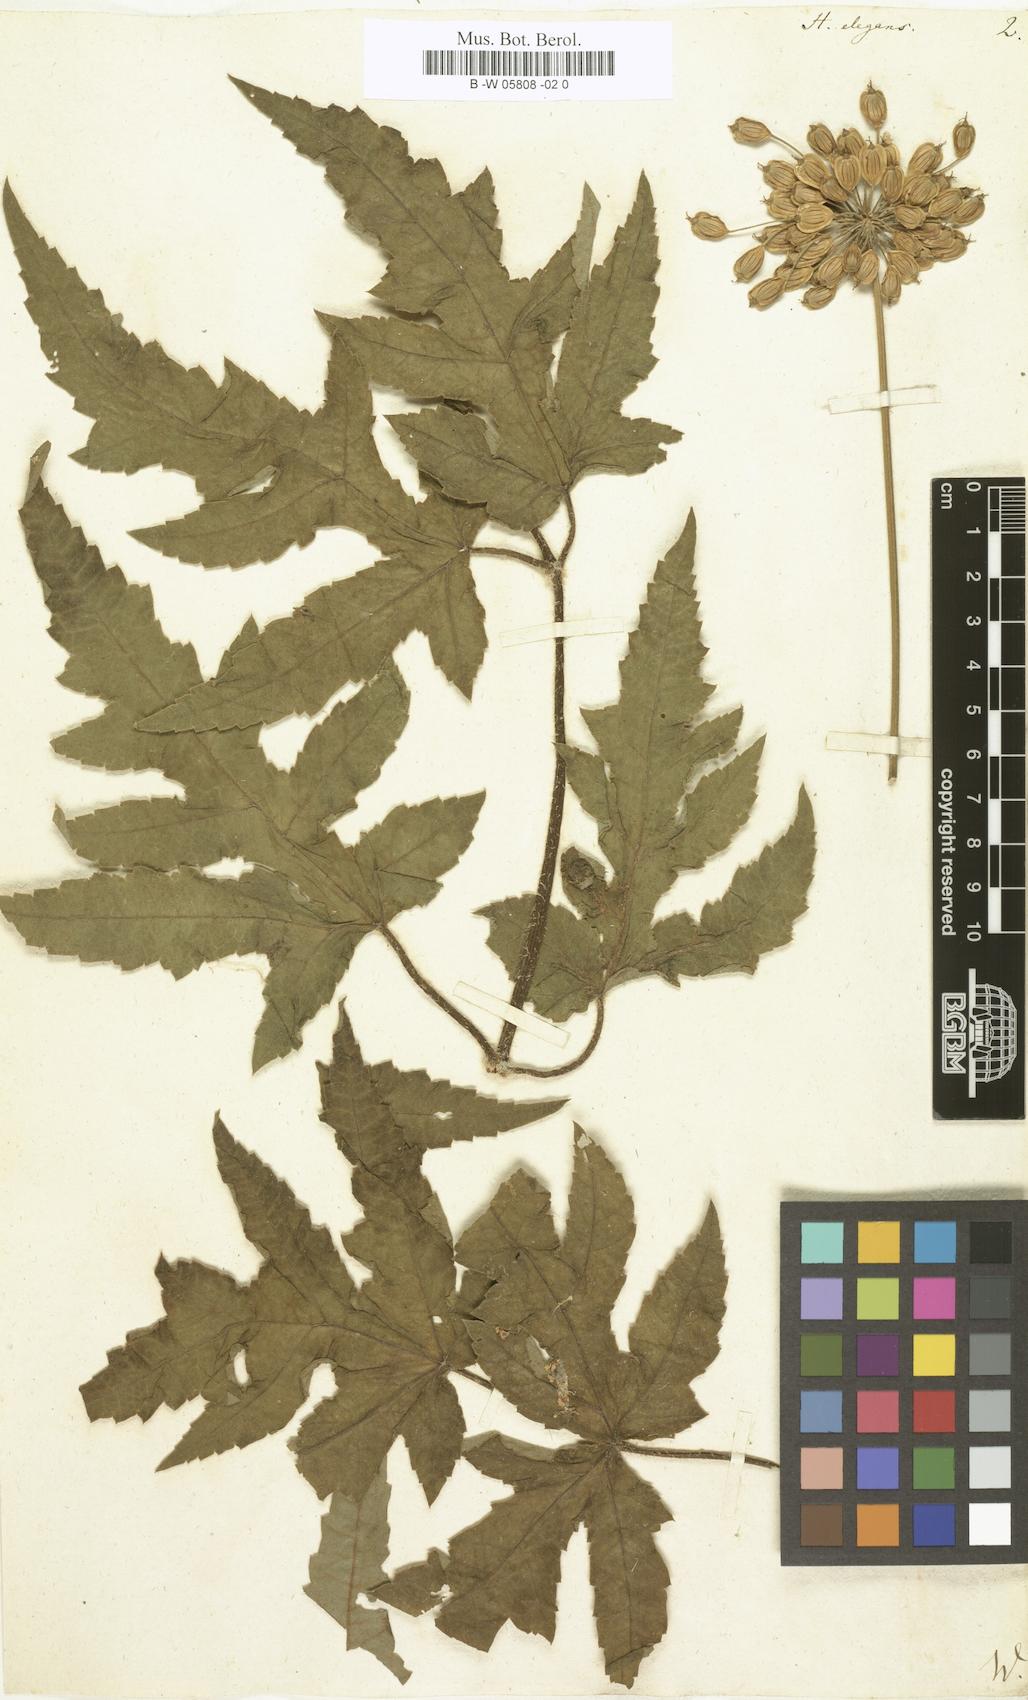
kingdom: Plantae
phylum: Tracheophyta
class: Magnoliopsida
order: Apiales
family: Apiaceae
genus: Heracleum
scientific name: Heracleum sphondylium
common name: Hogweed
